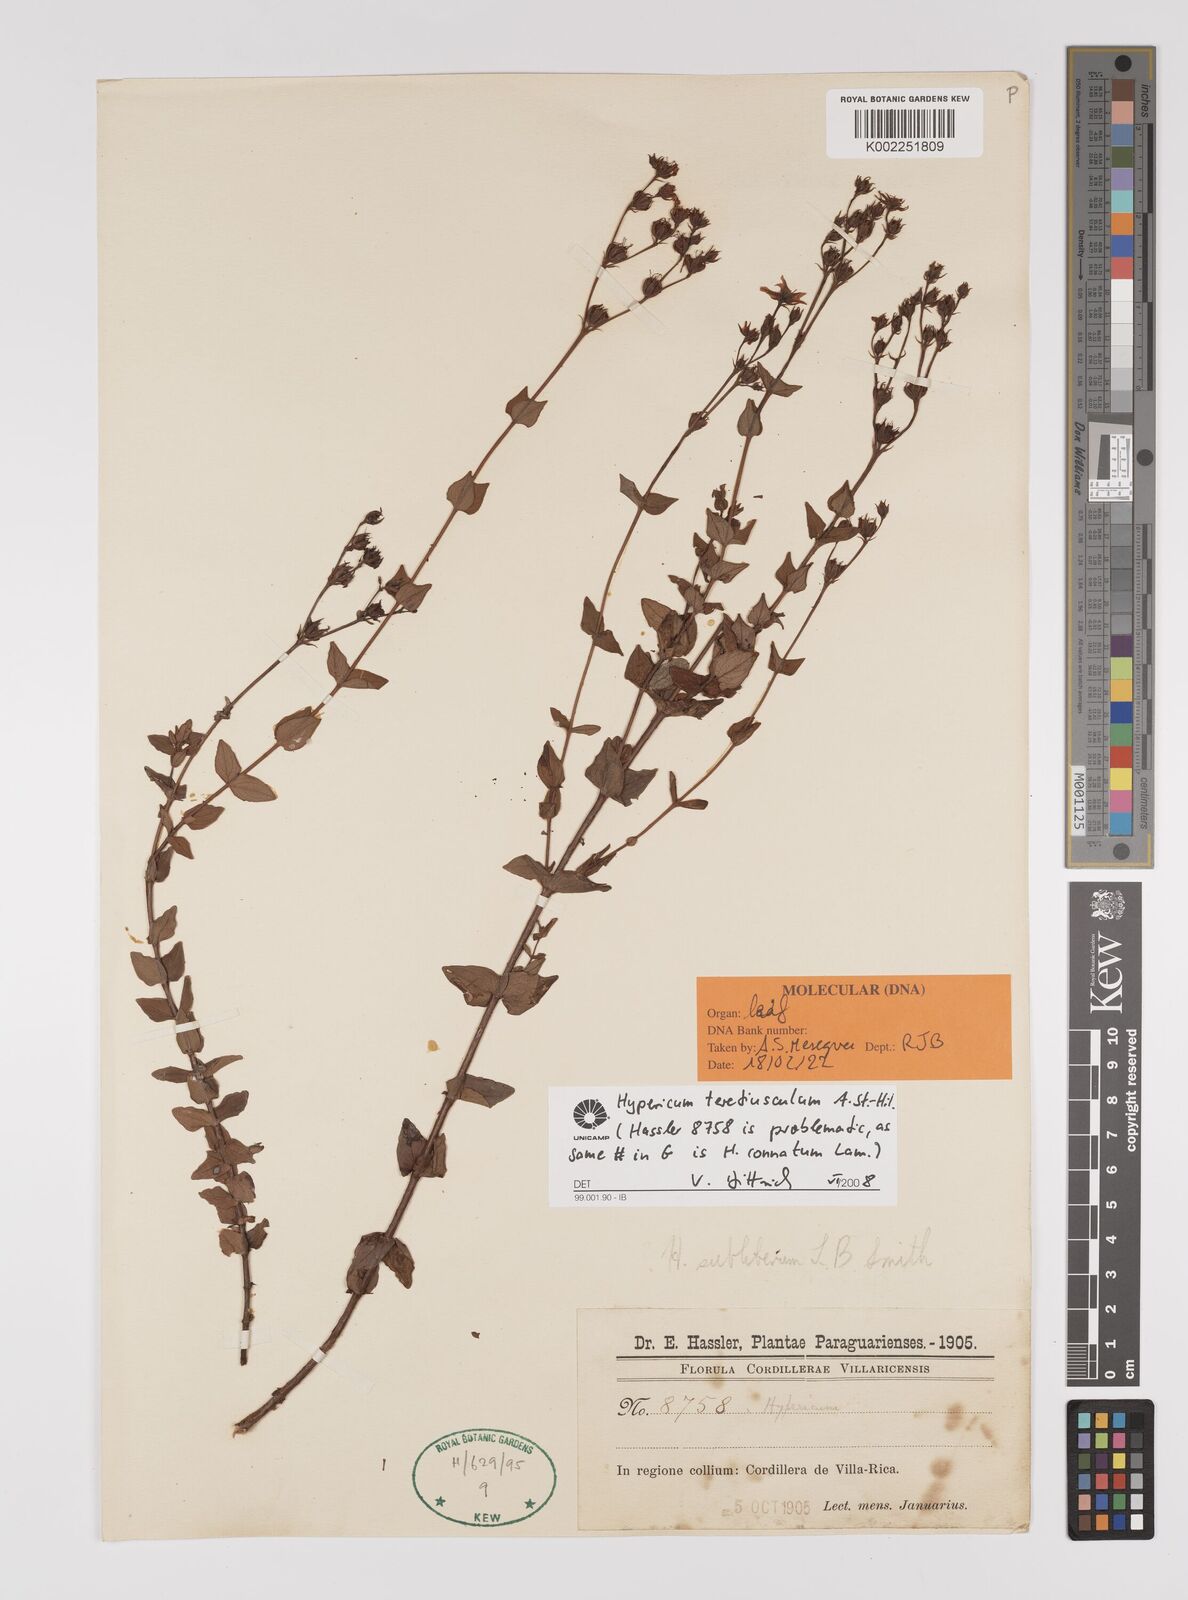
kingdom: Plantae
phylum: Tracheophyta
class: Magnoliopsida
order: Malpighiales
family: Hypericaceae
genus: Hypericum
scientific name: Hypericum teretiusculum
